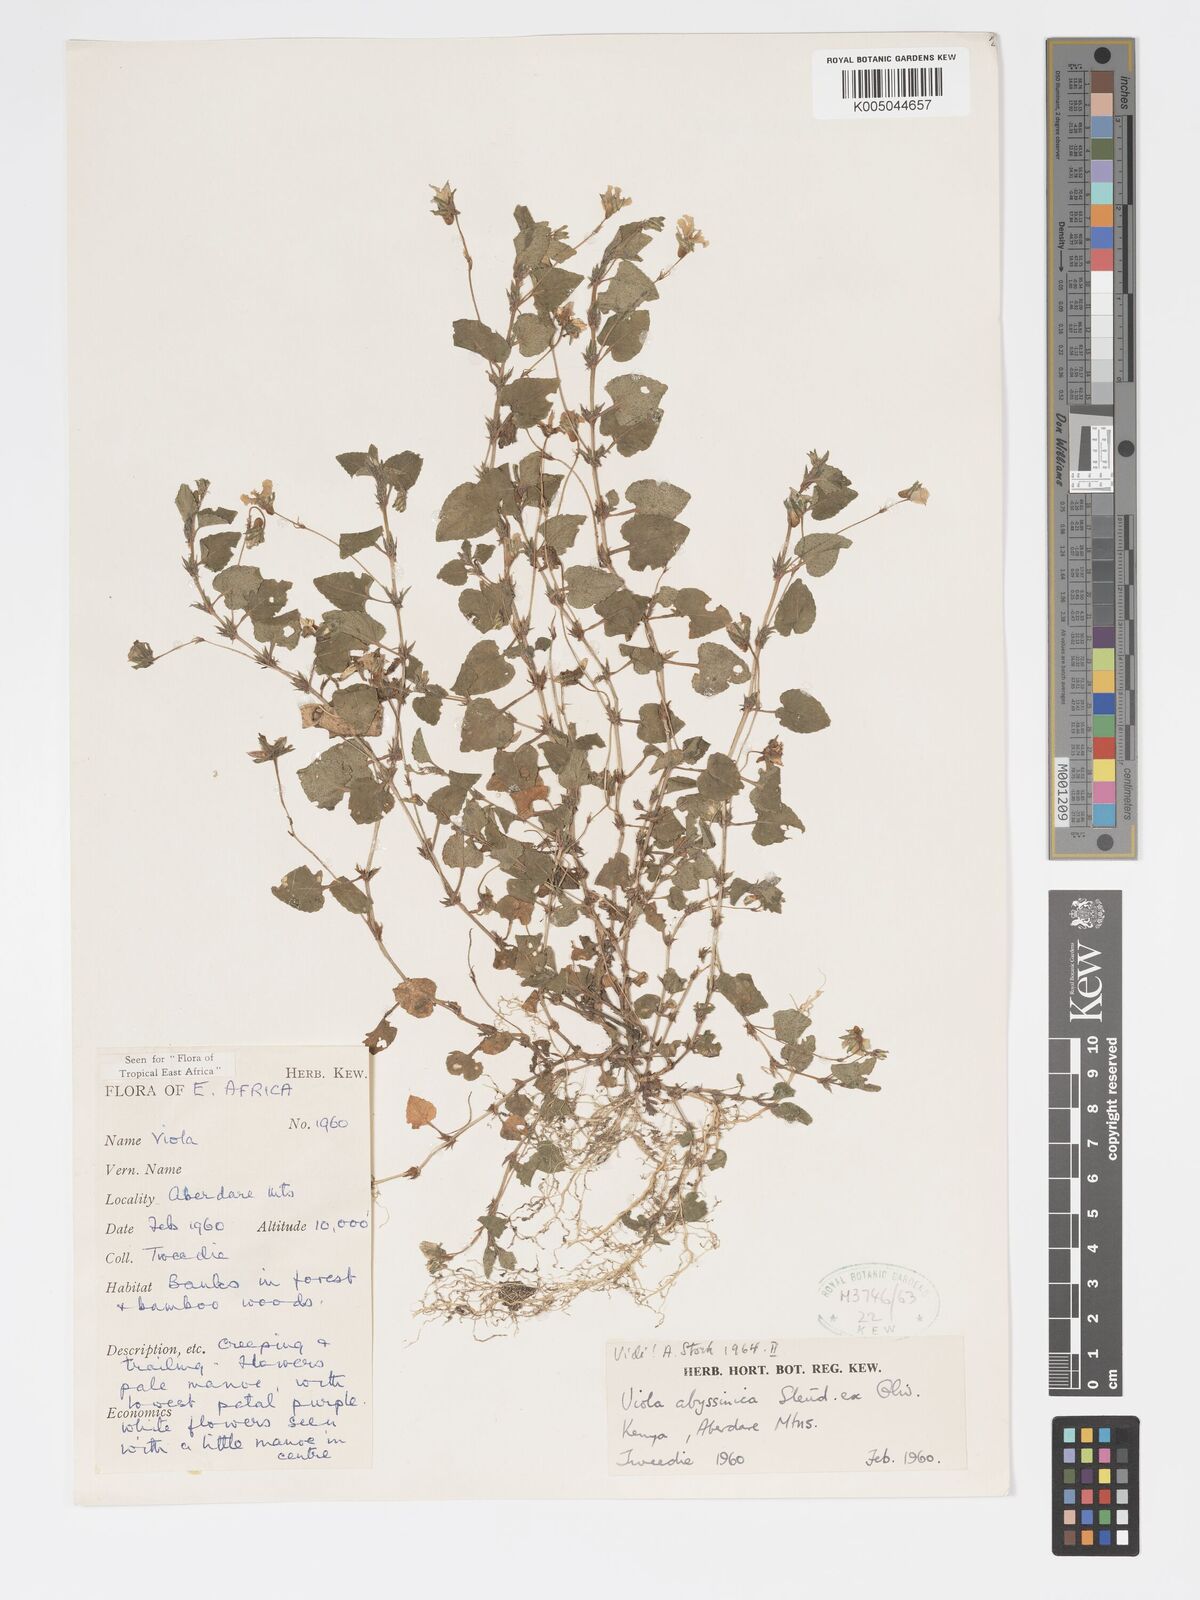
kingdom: Plantae
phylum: Tracheophyta
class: Magnoliopsida
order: Malpighiales
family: Violaceae
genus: Viola
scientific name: Viola abyssinica
